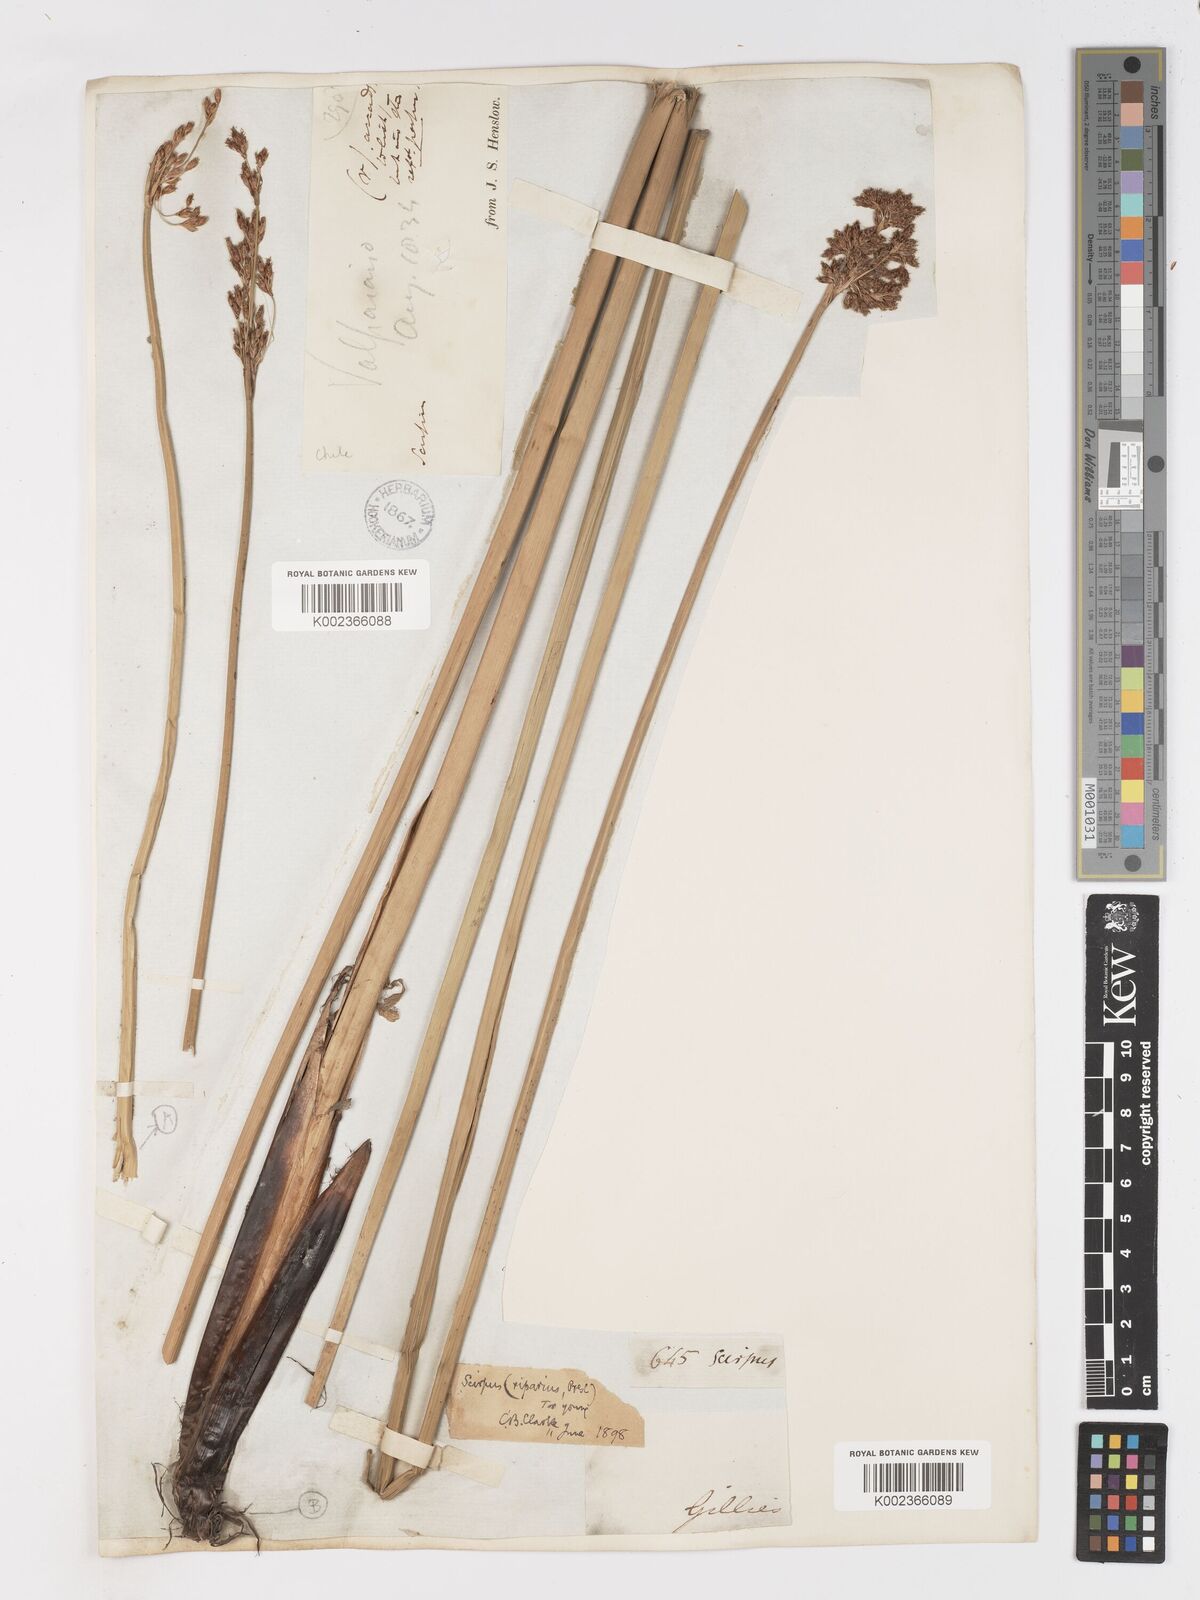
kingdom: Plantae
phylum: Tracheophyta
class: Liliopsida
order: Poales
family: Cyperaceae
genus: Schoenoplectus
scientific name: Schoenoplectus californicus
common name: California bulrush
